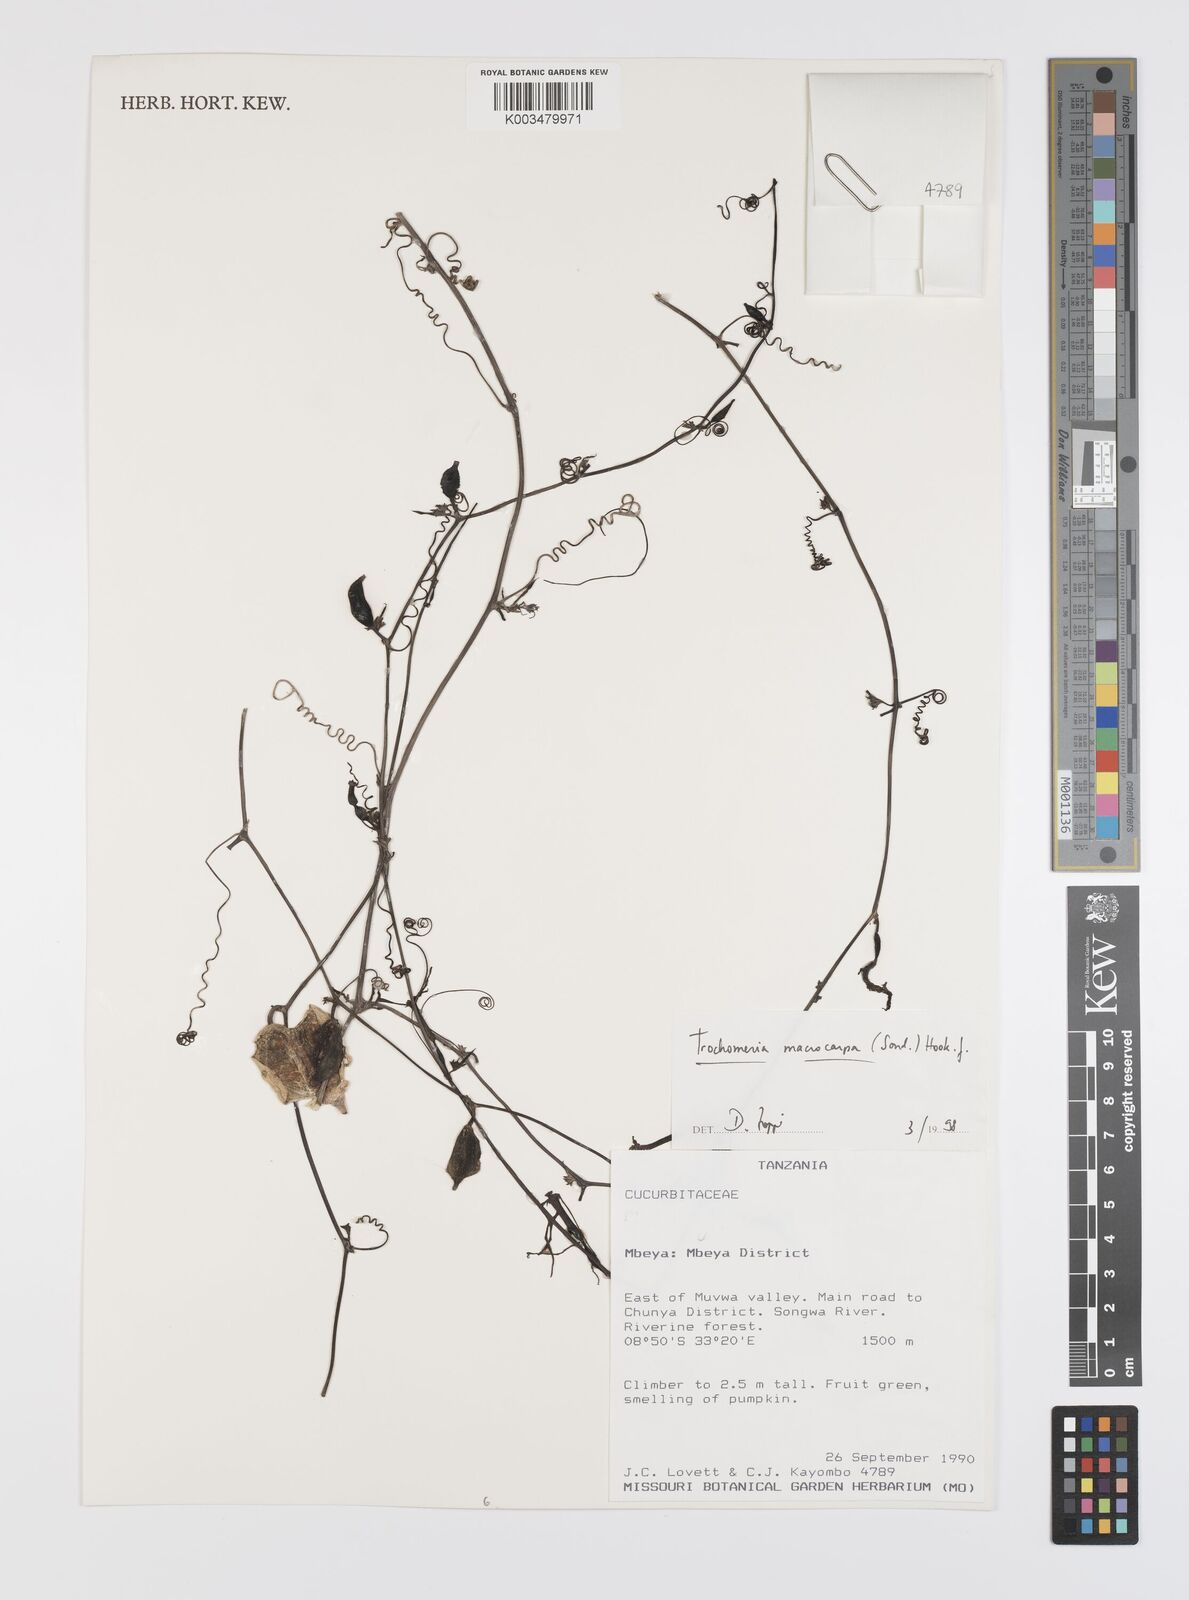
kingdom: Plantae
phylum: Tracheophyta
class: Magnoliopsida
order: Cucurbitales
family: Cucurbitaceae
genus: Trochomeria
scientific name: Trochomeria macrocarpa
